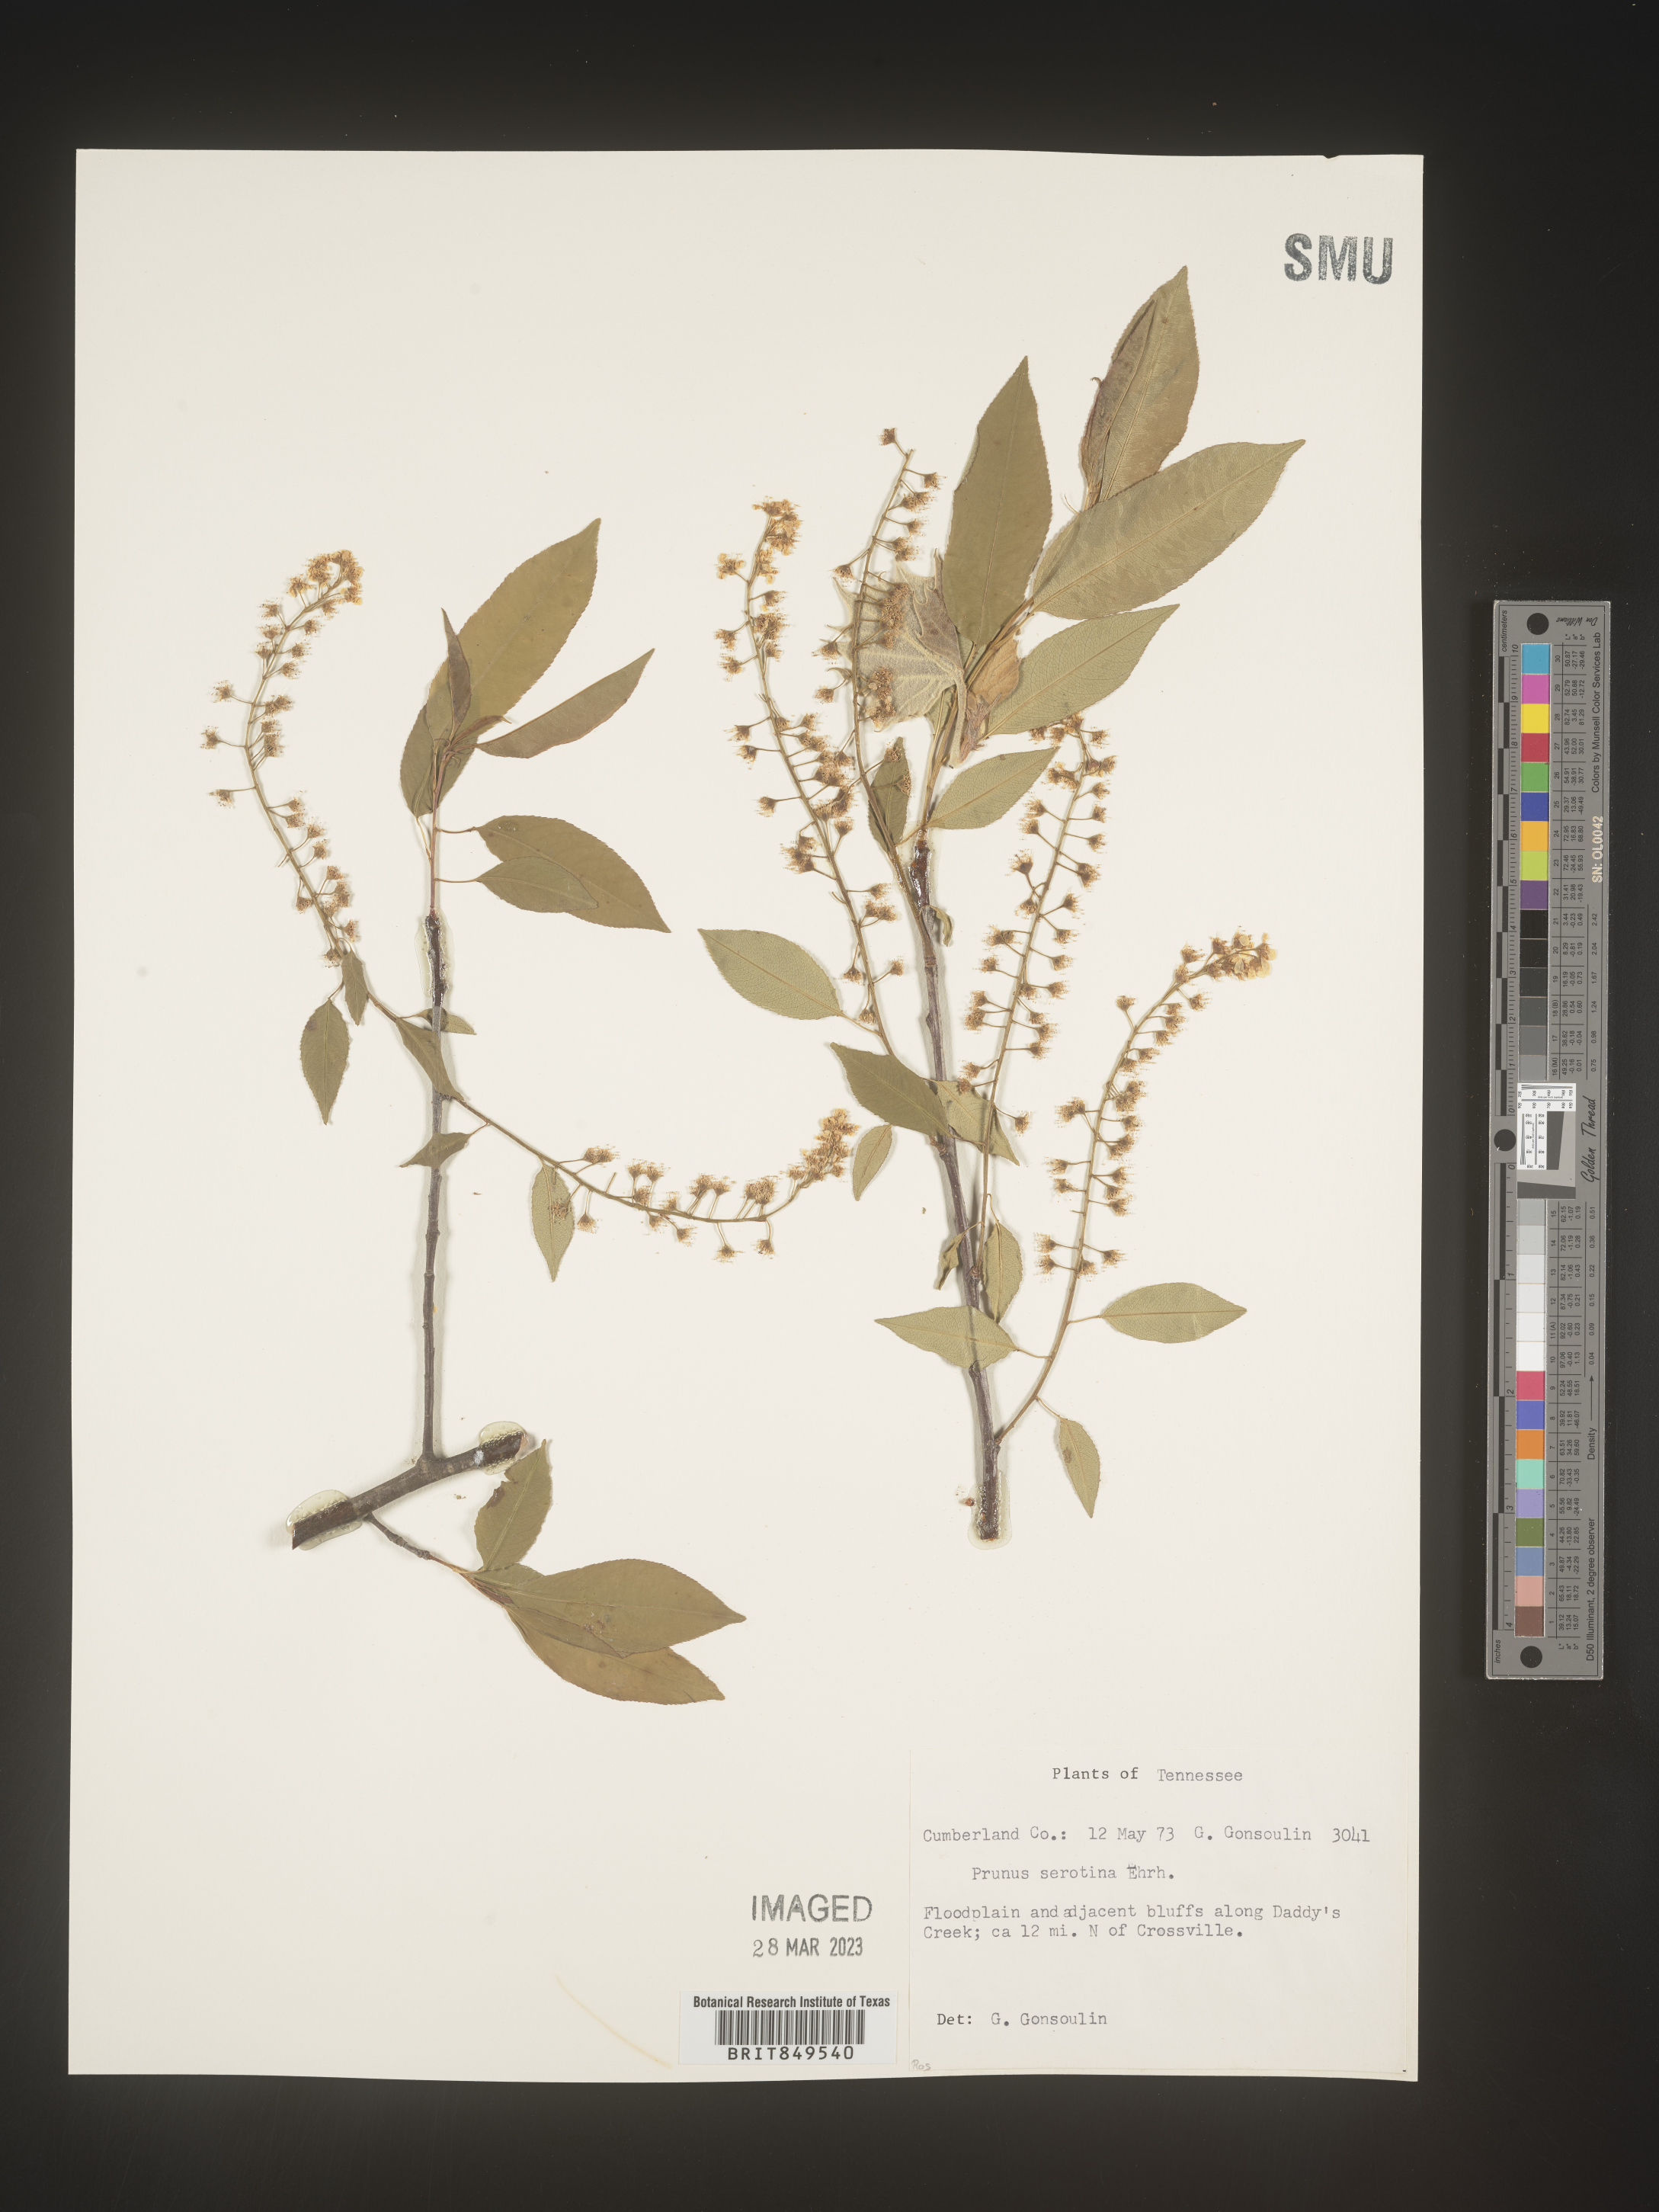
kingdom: Plantae
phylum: Tracheophyta
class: Magnoliopsida
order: Rosales
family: Rosaceae
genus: Prunus
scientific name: Prunus serotina
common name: Black cherry
